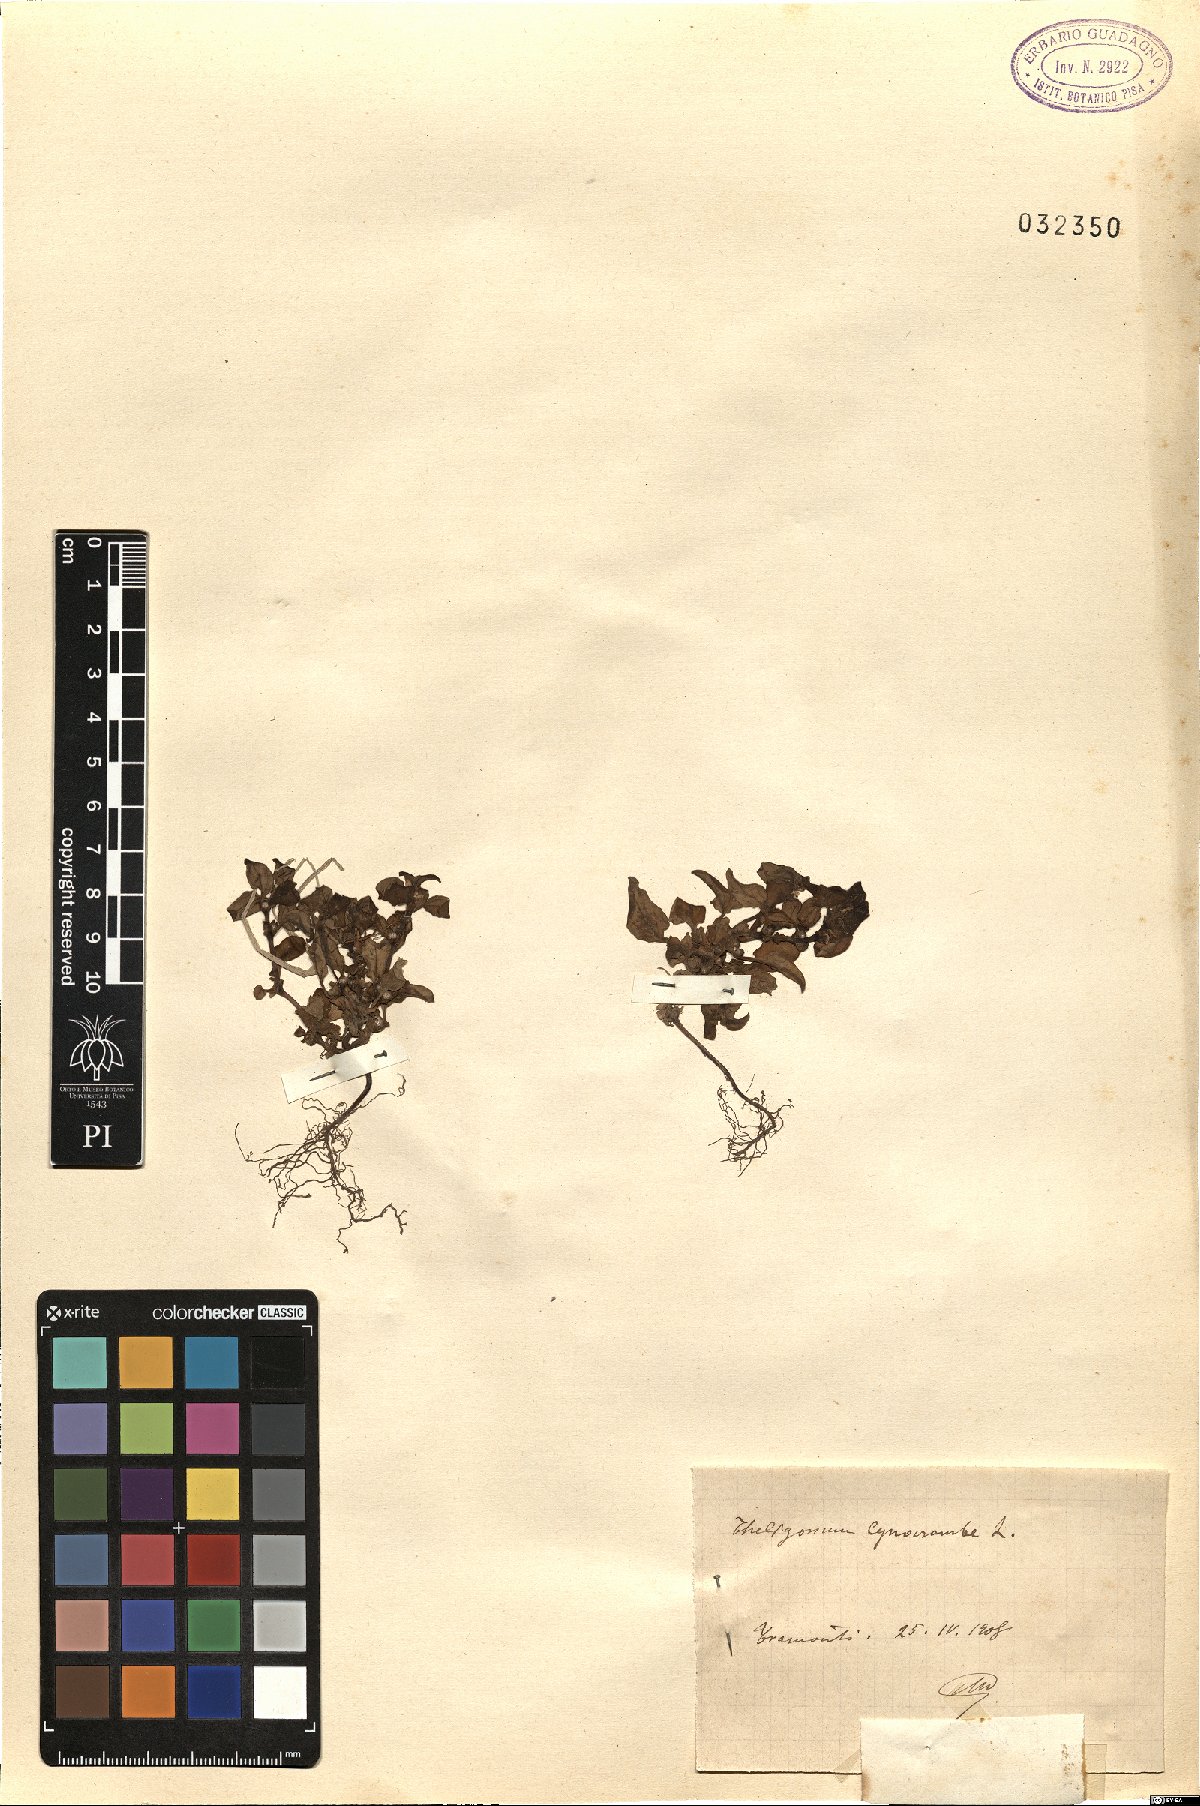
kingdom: Plantae
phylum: Tracheophyta
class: Magnoliopsida
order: Gentianales
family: Rubiaceae
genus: Theligonum
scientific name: Theligonum cynocrambe
